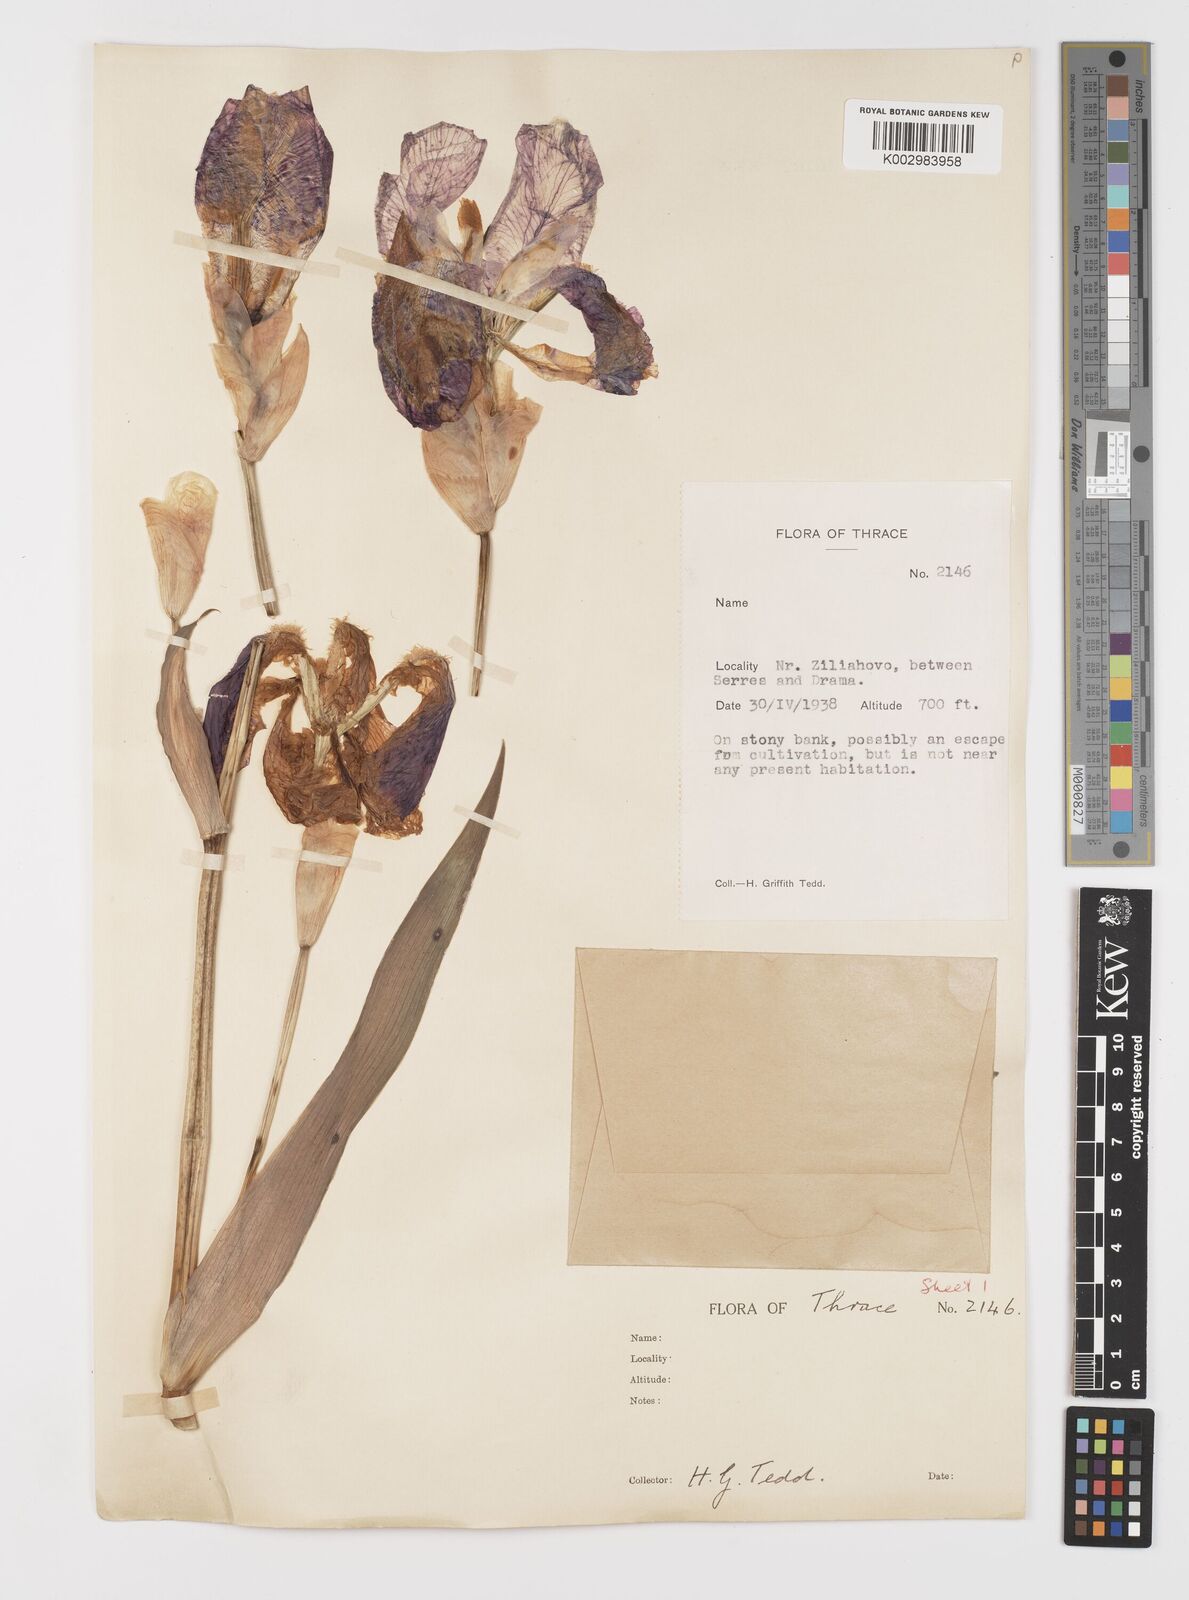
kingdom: Plantae
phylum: Tracheophyta
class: Liliopsida
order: Asparagales
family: Iridaceae
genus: Iris
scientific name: Iris germanica
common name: German iris
